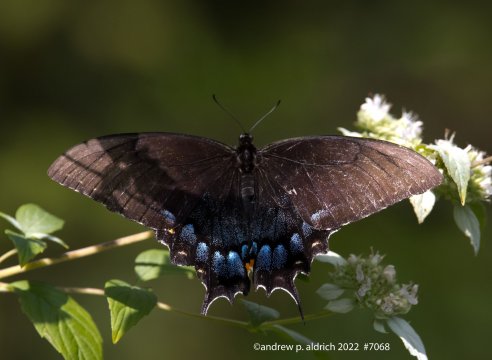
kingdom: Animalia
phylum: Arthropoda
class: Insecta
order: Lepidoptera
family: Papilionidae
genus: Pterourus
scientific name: Pterourus glaucus
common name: Eastern Tiger Swallowtail
